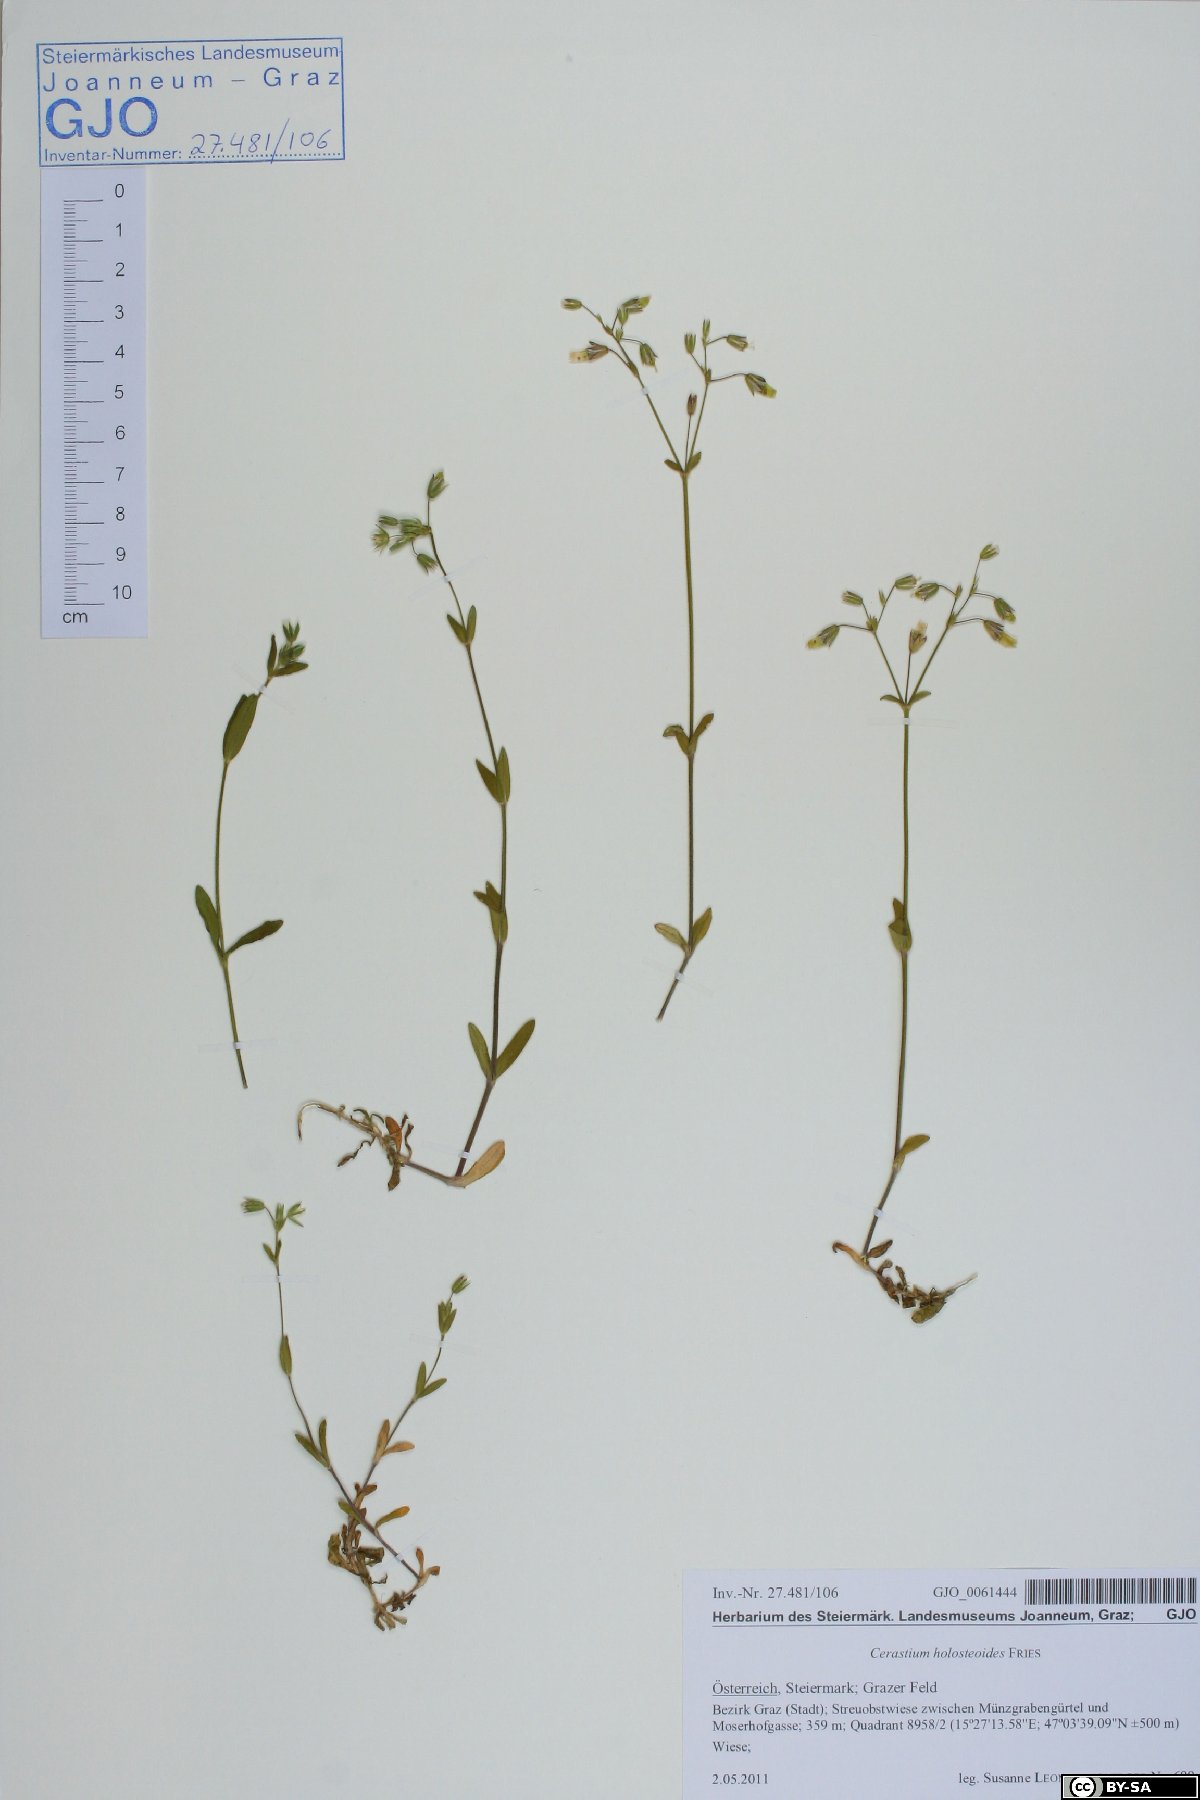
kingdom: Plantae
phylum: Tracheophyta
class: Magnoliopsida
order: Caryophyllales
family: Caryophyllaceae
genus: Cerastium
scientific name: Cerastium holosteoides
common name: Big chickweed
